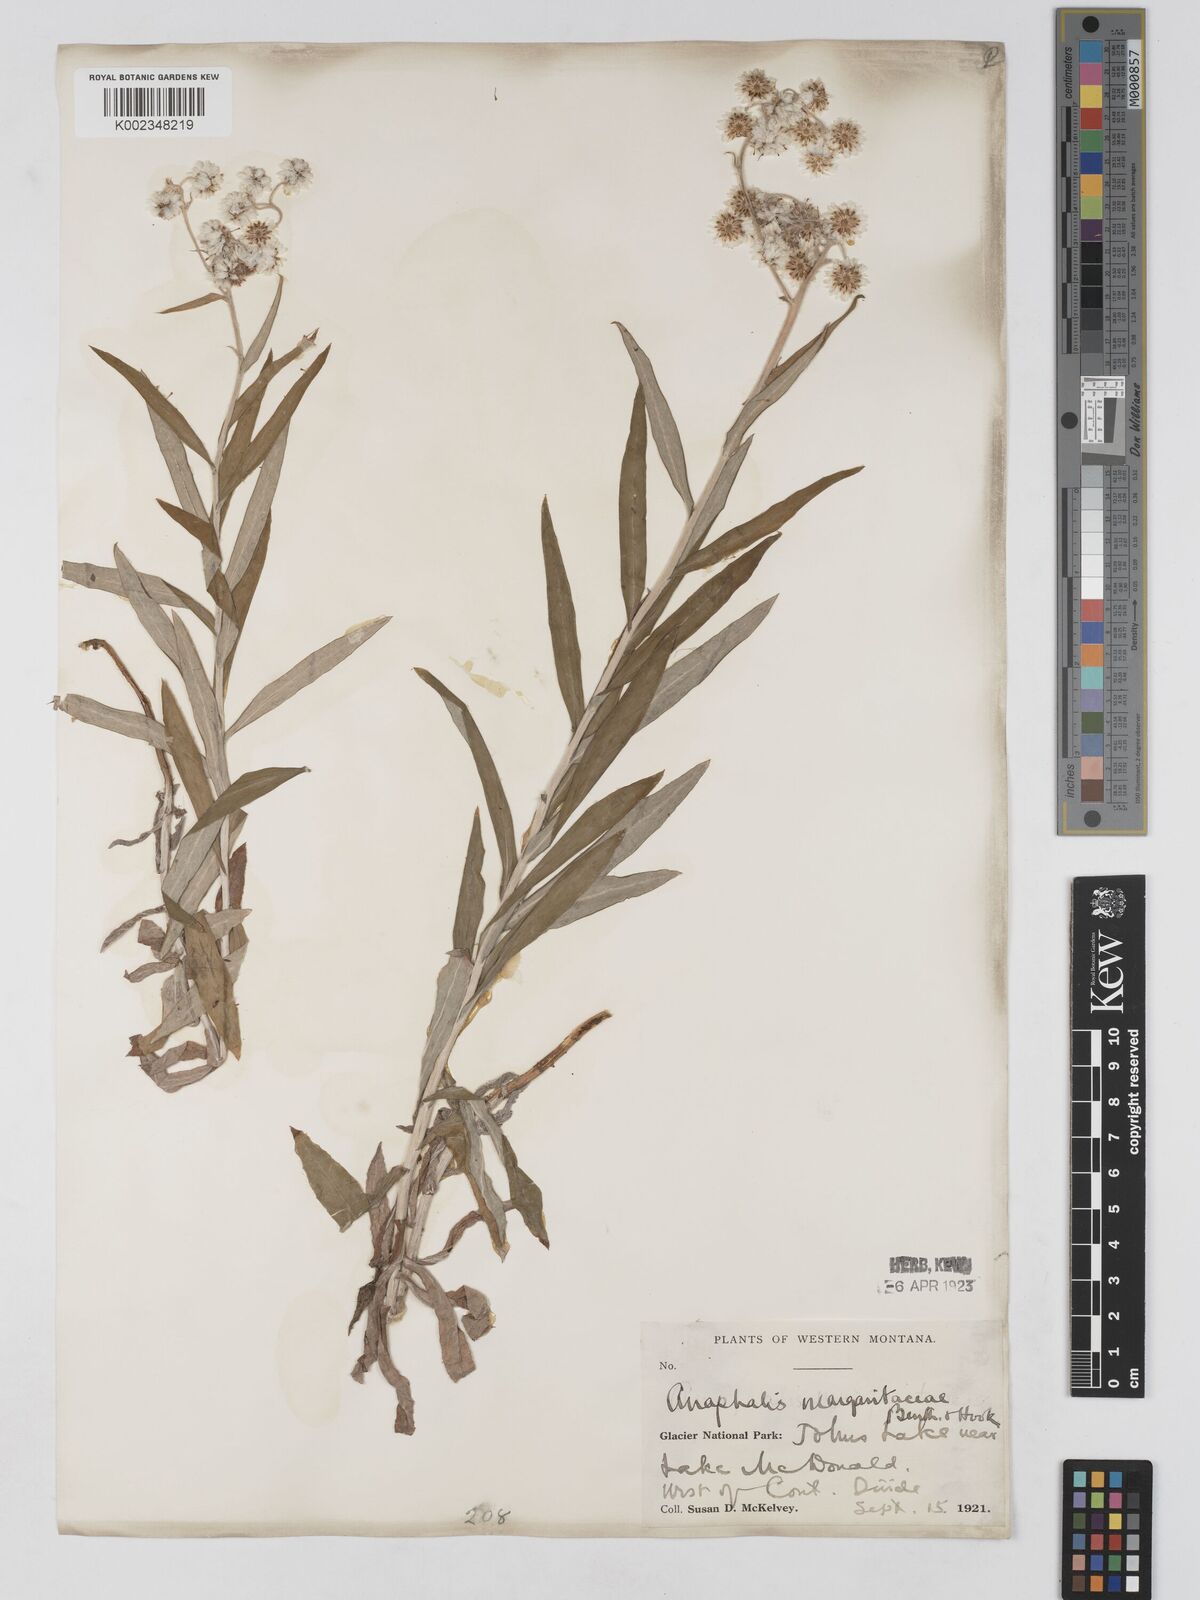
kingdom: Plantae
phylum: Tracheophyta
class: Magnoliopsida
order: Asterales
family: Asteraceae
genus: Anaphalis
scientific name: Anaphalis margaritacea
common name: Pearly everlasting
